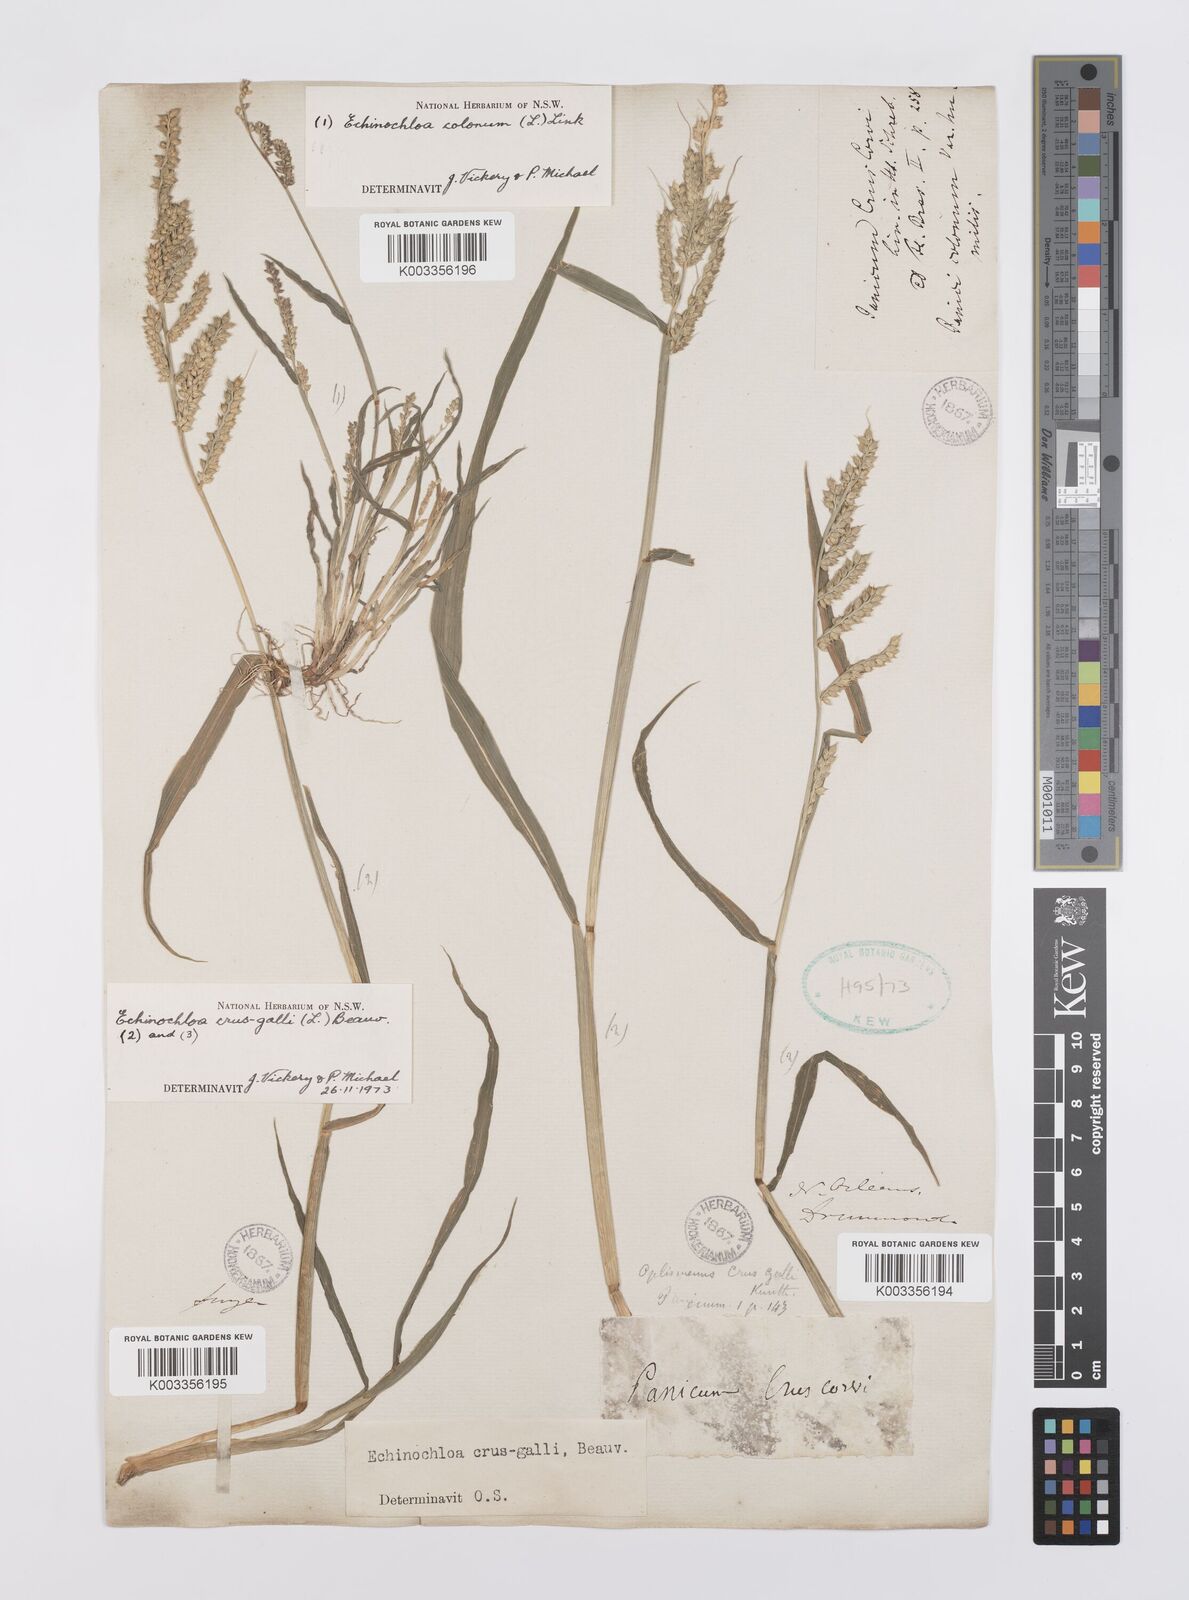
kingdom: Plantae
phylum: Tracheophyta
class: Liliopsida
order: Poales
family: Poaceae
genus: Echinochloa
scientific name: Echinochloa crus-galli
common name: Cockspur
